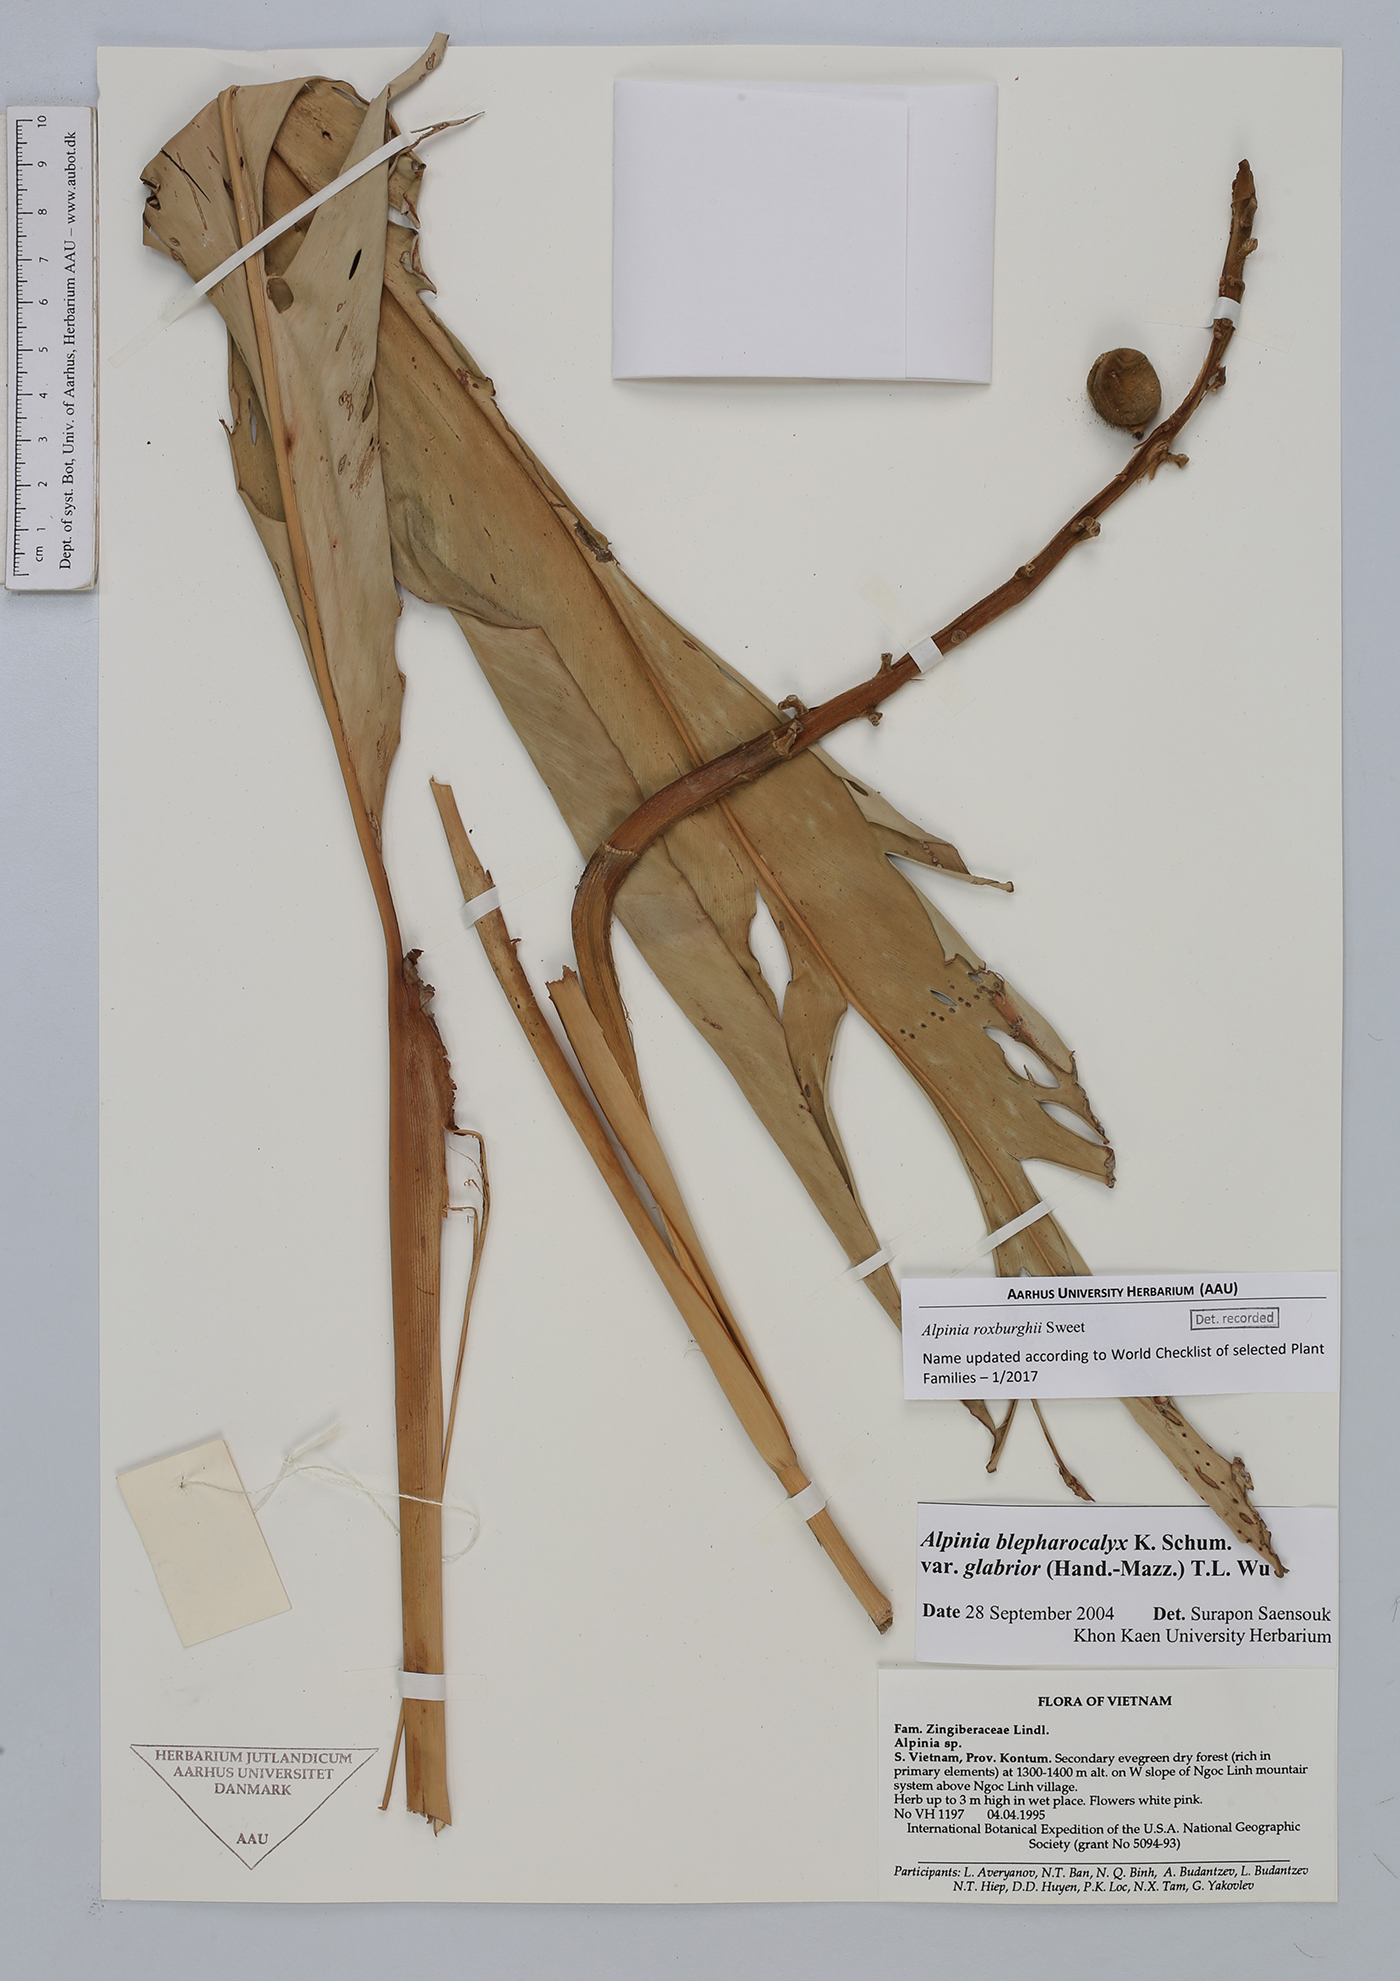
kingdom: Plantae
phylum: Tracheophyta
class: Liliopsida
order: Zingiberales
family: Zingiberaceae
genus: Alpinia
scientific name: Alpinia roxburghii
